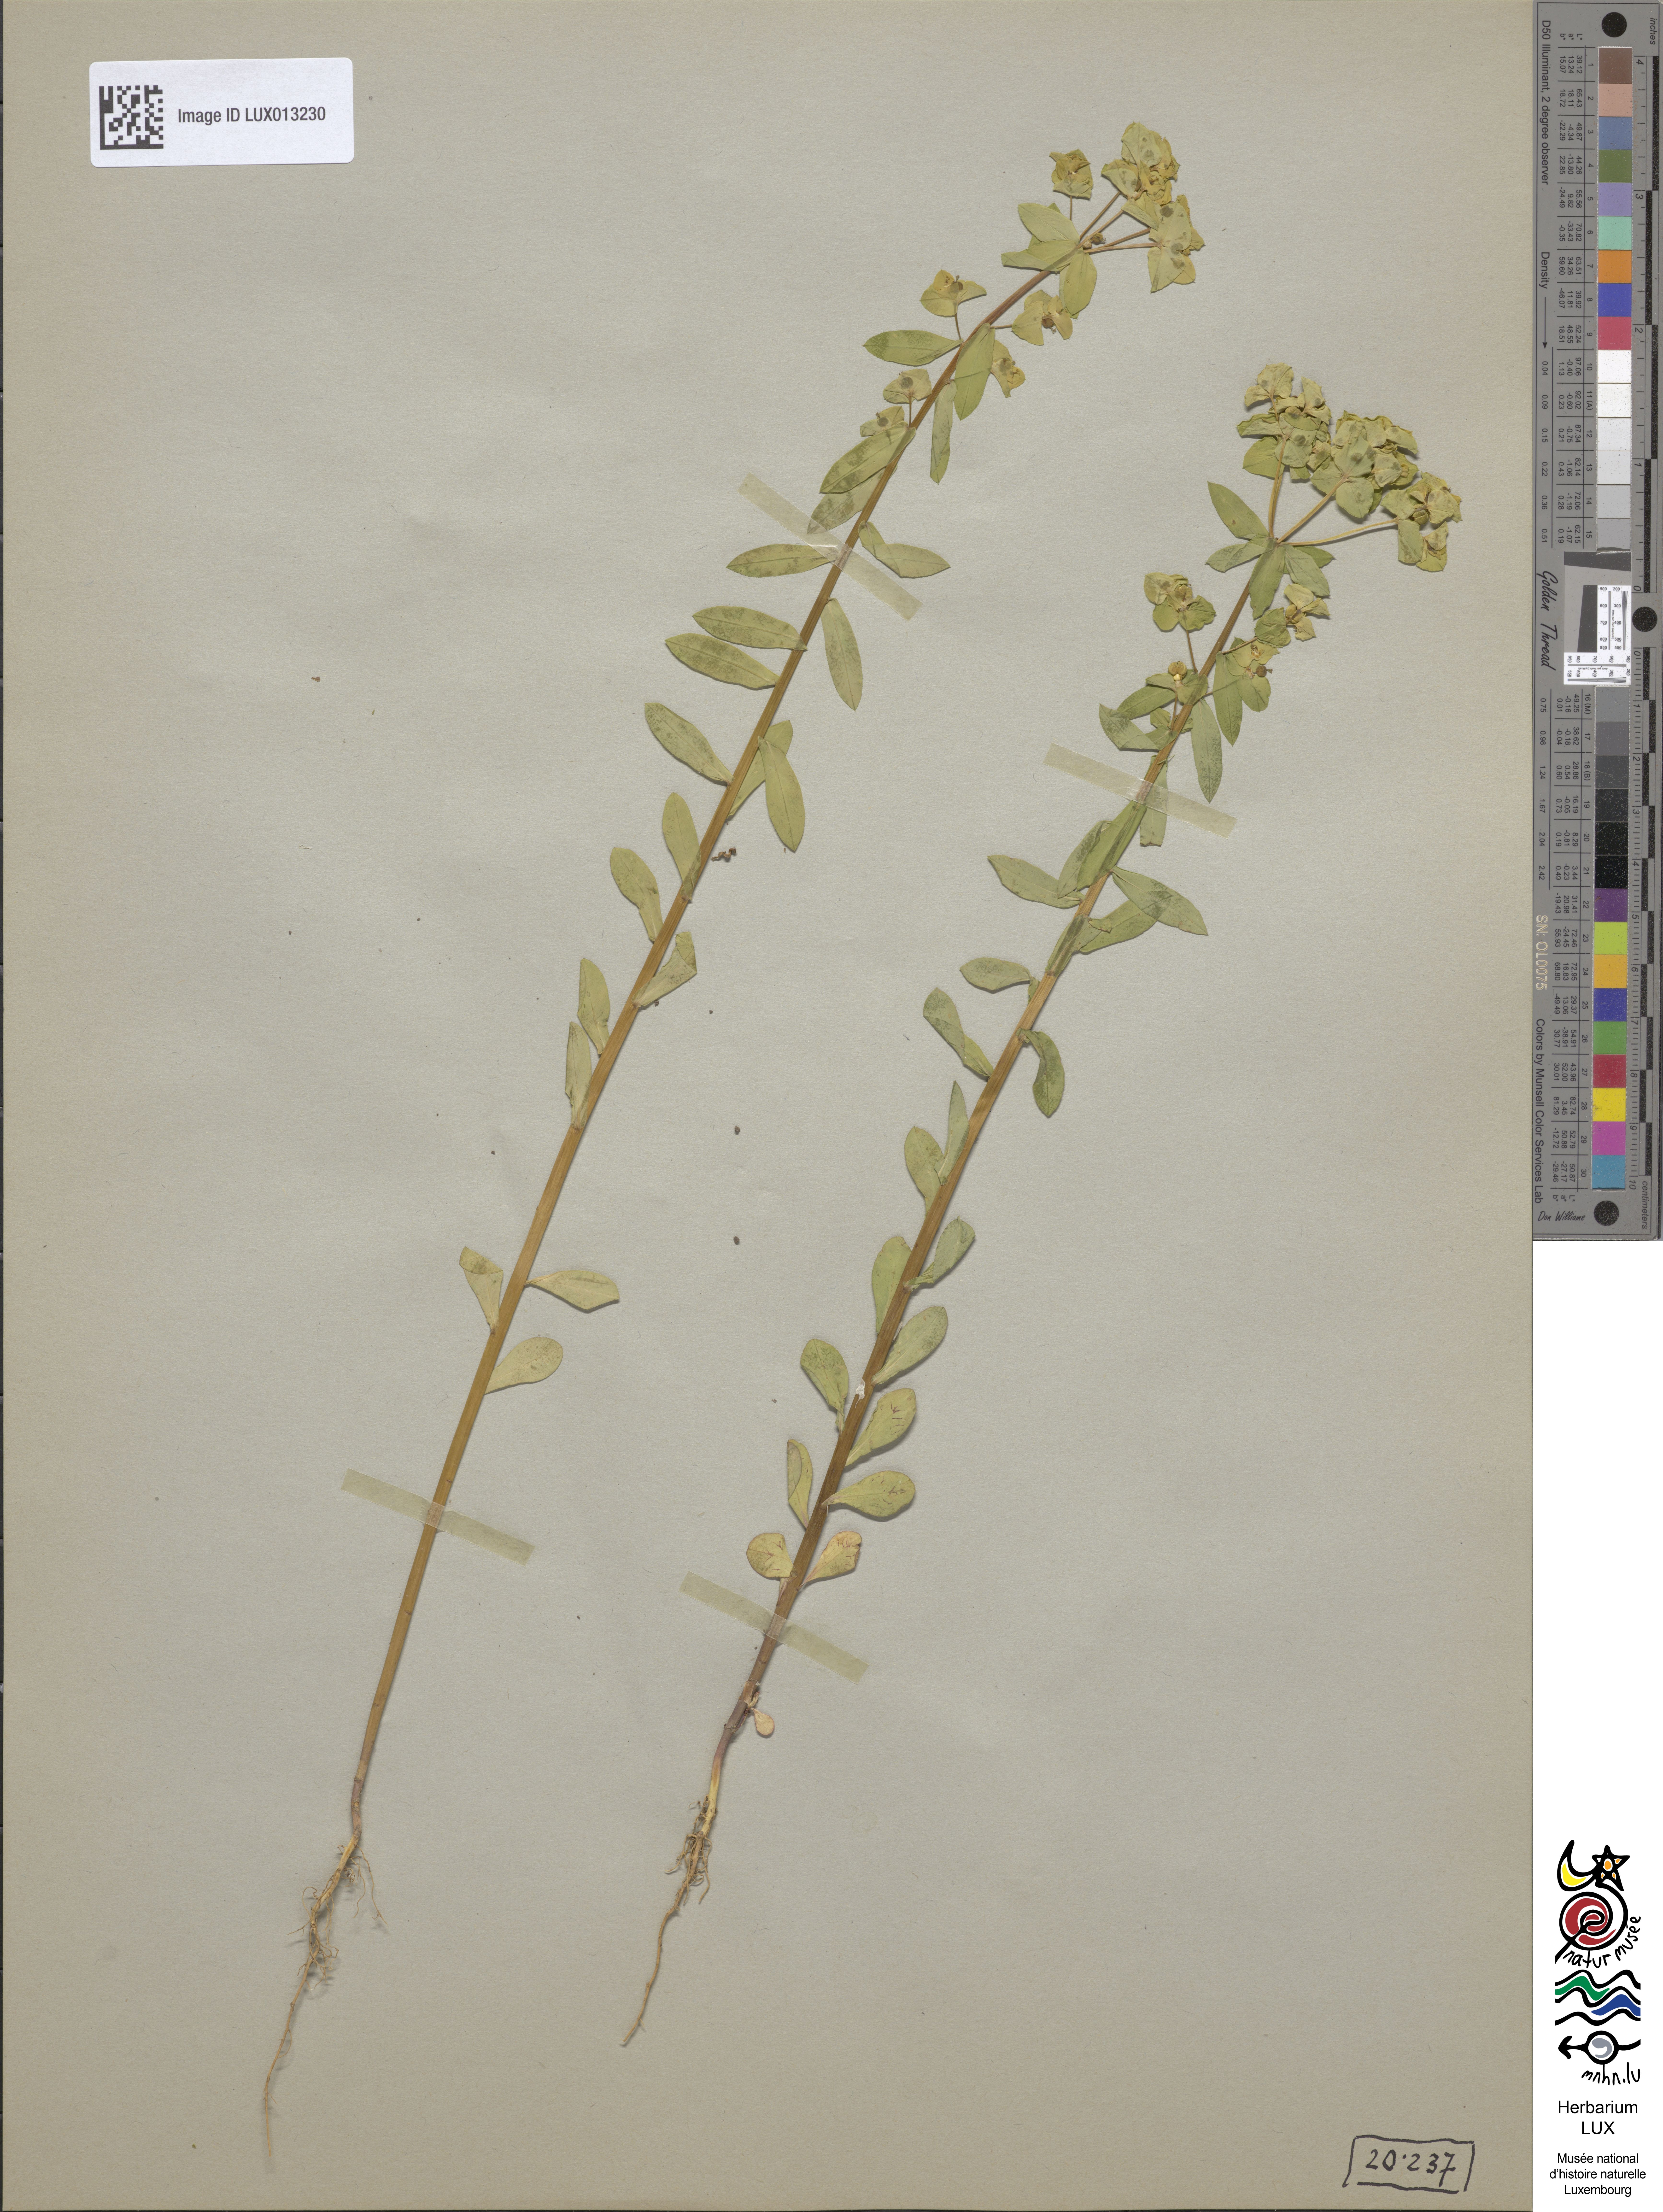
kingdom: Plantae
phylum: Tracheophyta
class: Magnoliopsida
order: Malpighiales
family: Euphorbiaceae
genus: Euphorbia
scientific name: Euphorbia platyphyllos
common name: Broad-leaved spurge
